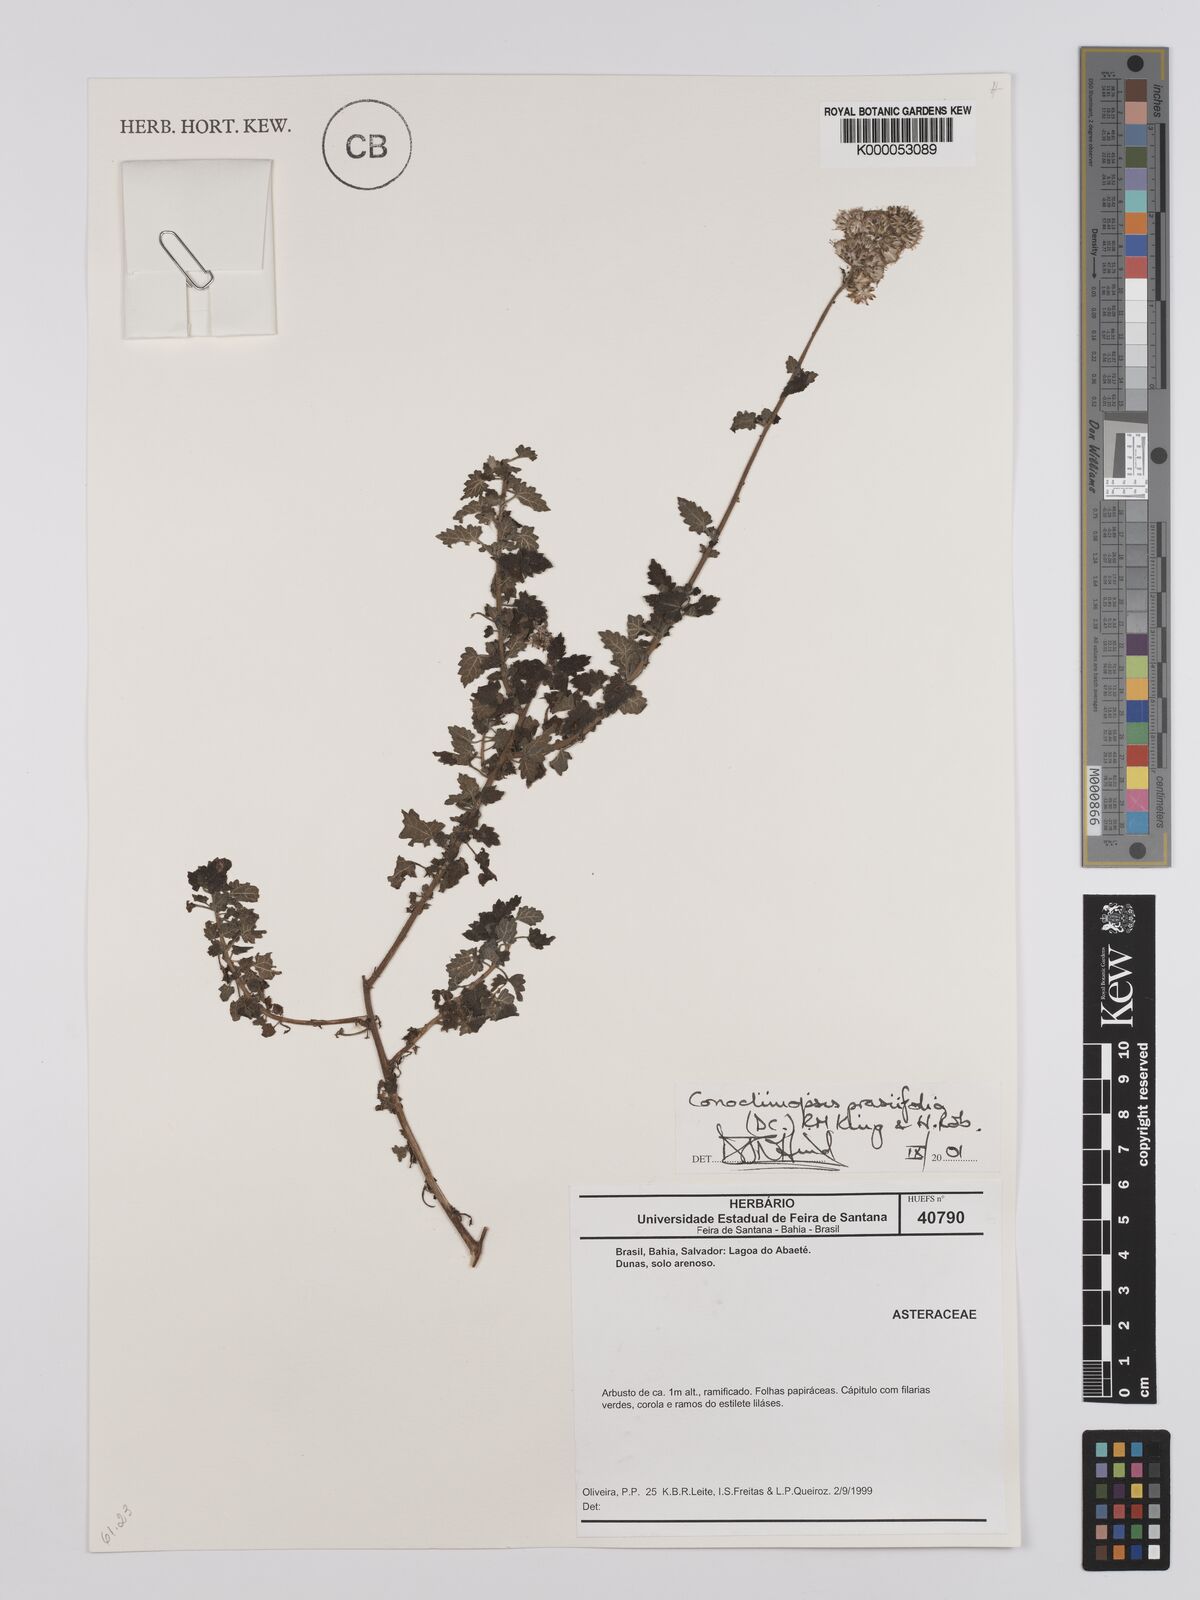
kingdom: Plantae
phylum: Tracheophyta
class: Magnoliopsida
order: Asterales
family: Asteraceae
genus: Conocliniopsis
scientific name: Conocliniopsis grossedentata
